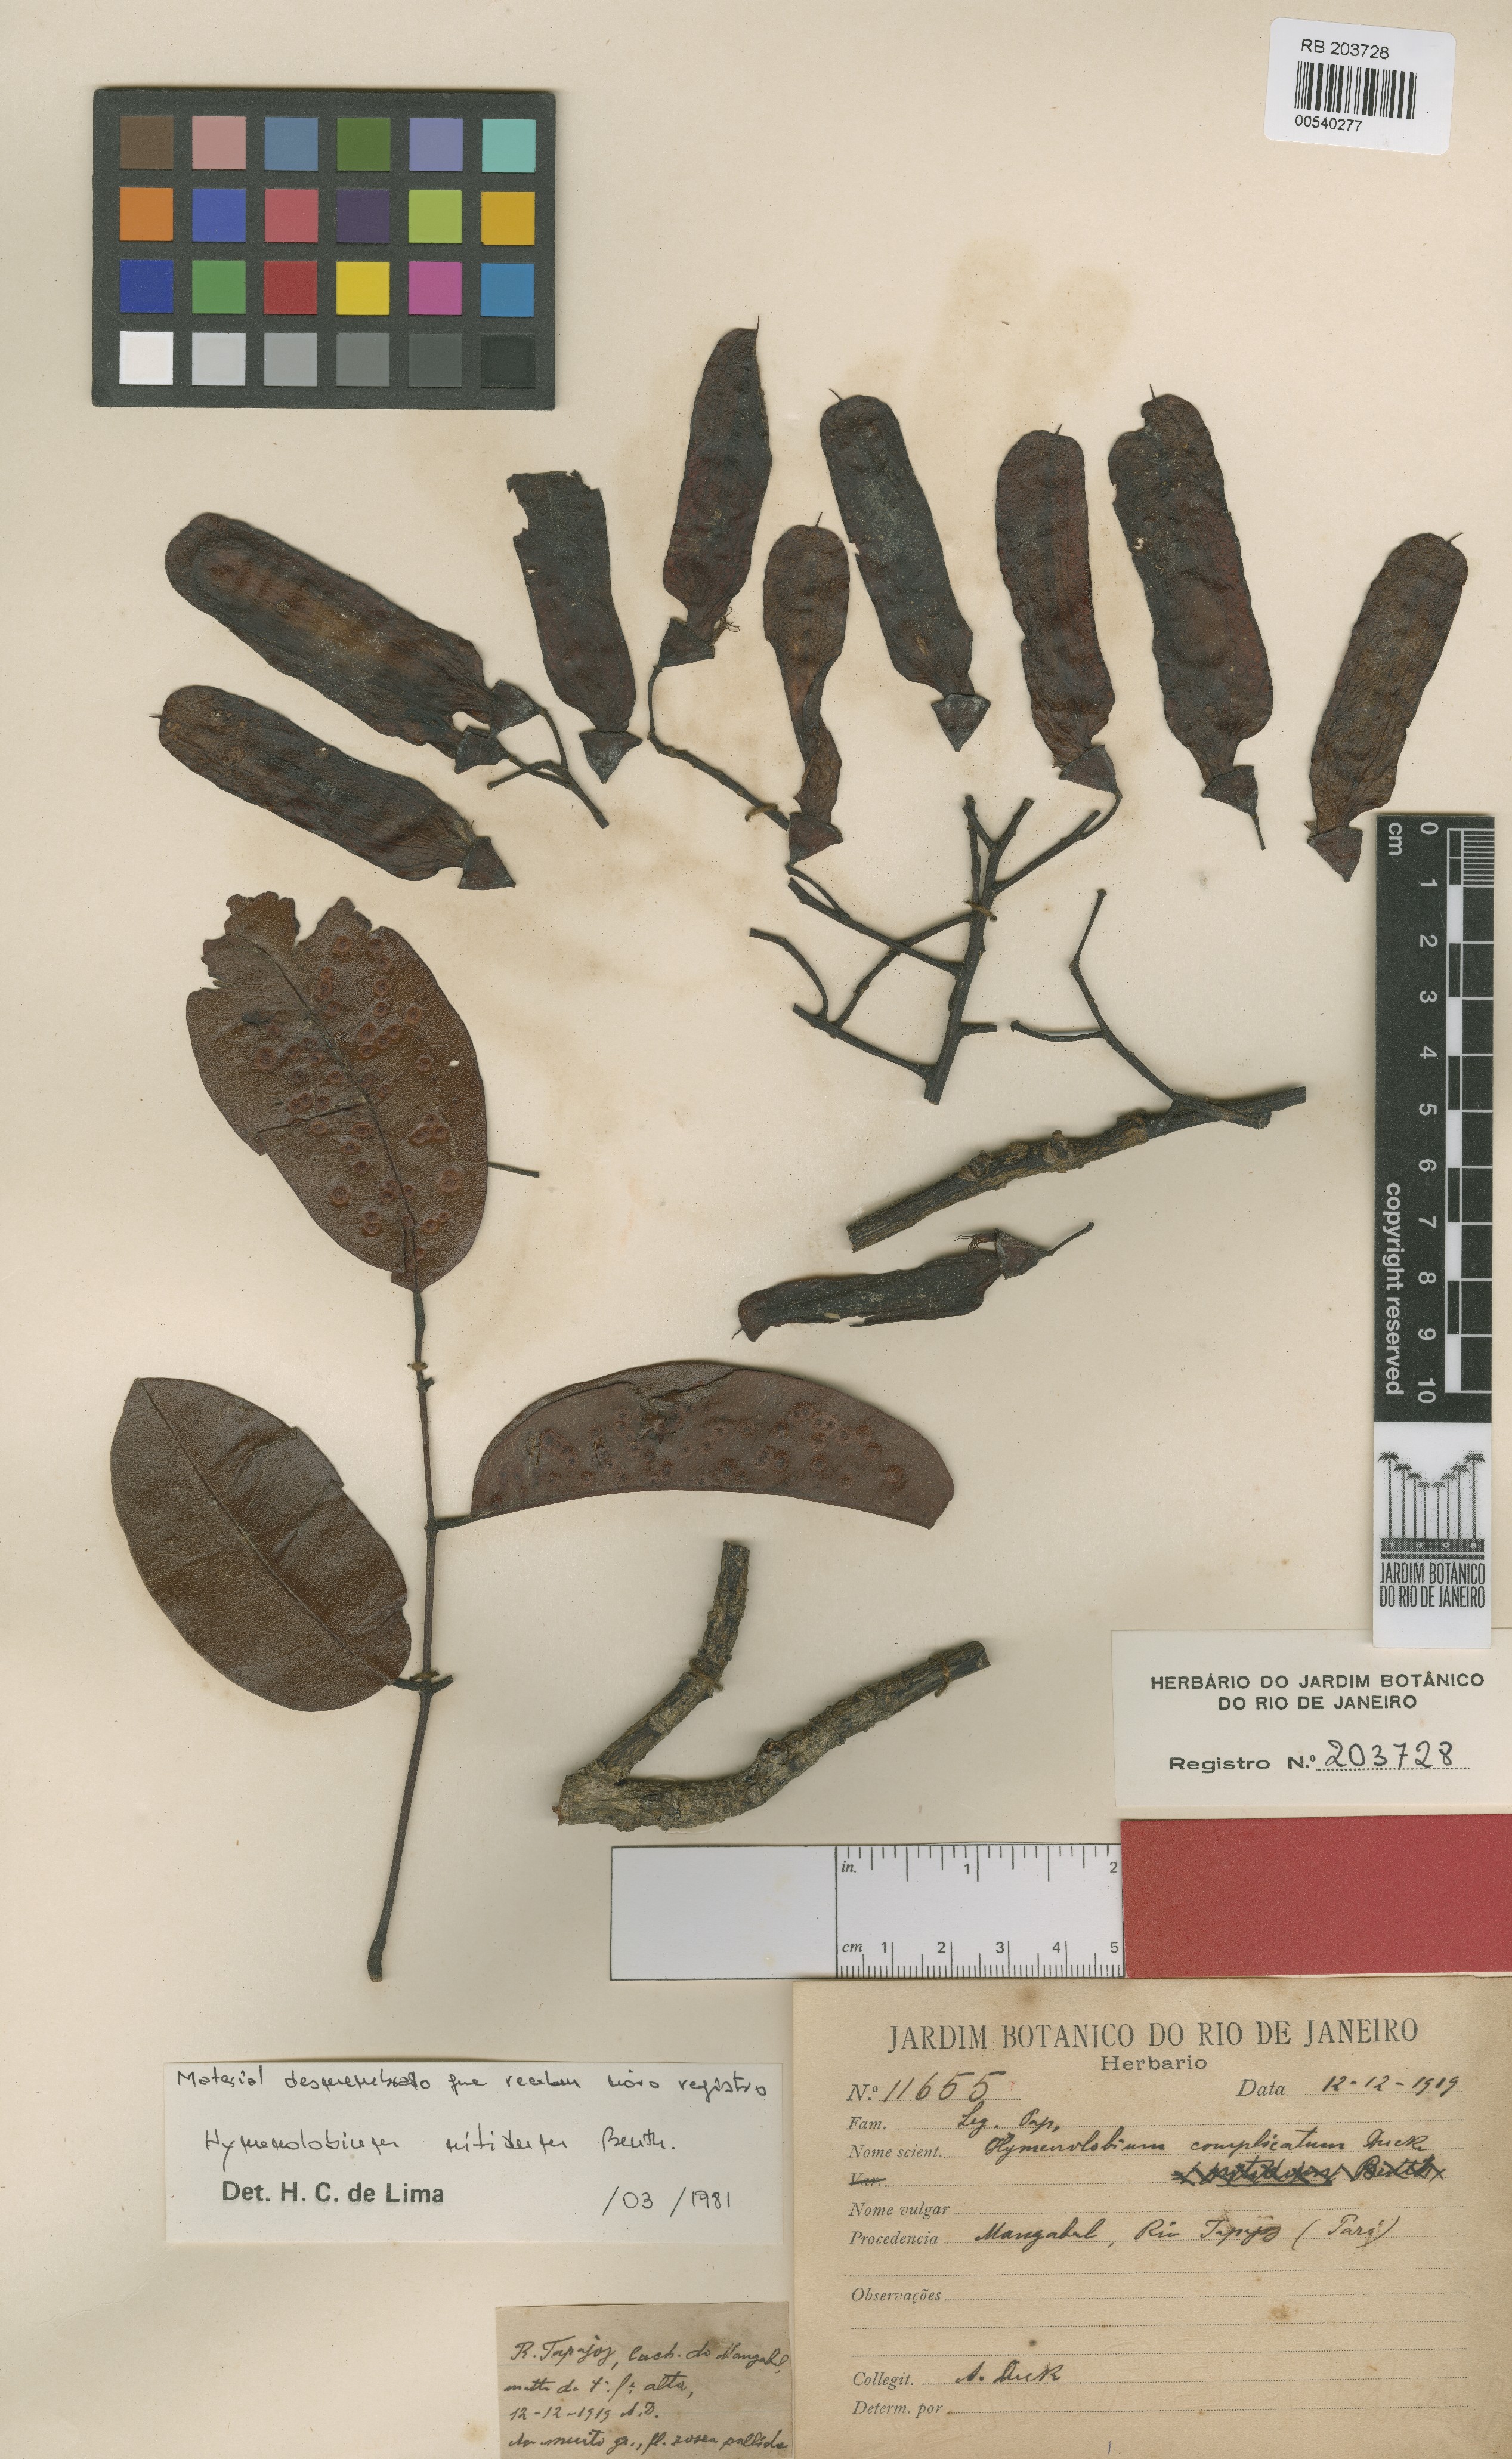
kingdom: Plantae
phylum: Tracheophyta
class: Magnoliopsida
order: Fabales
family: Fabaceae
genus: Hymenolobium
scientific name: Hymenolobium nitidum
